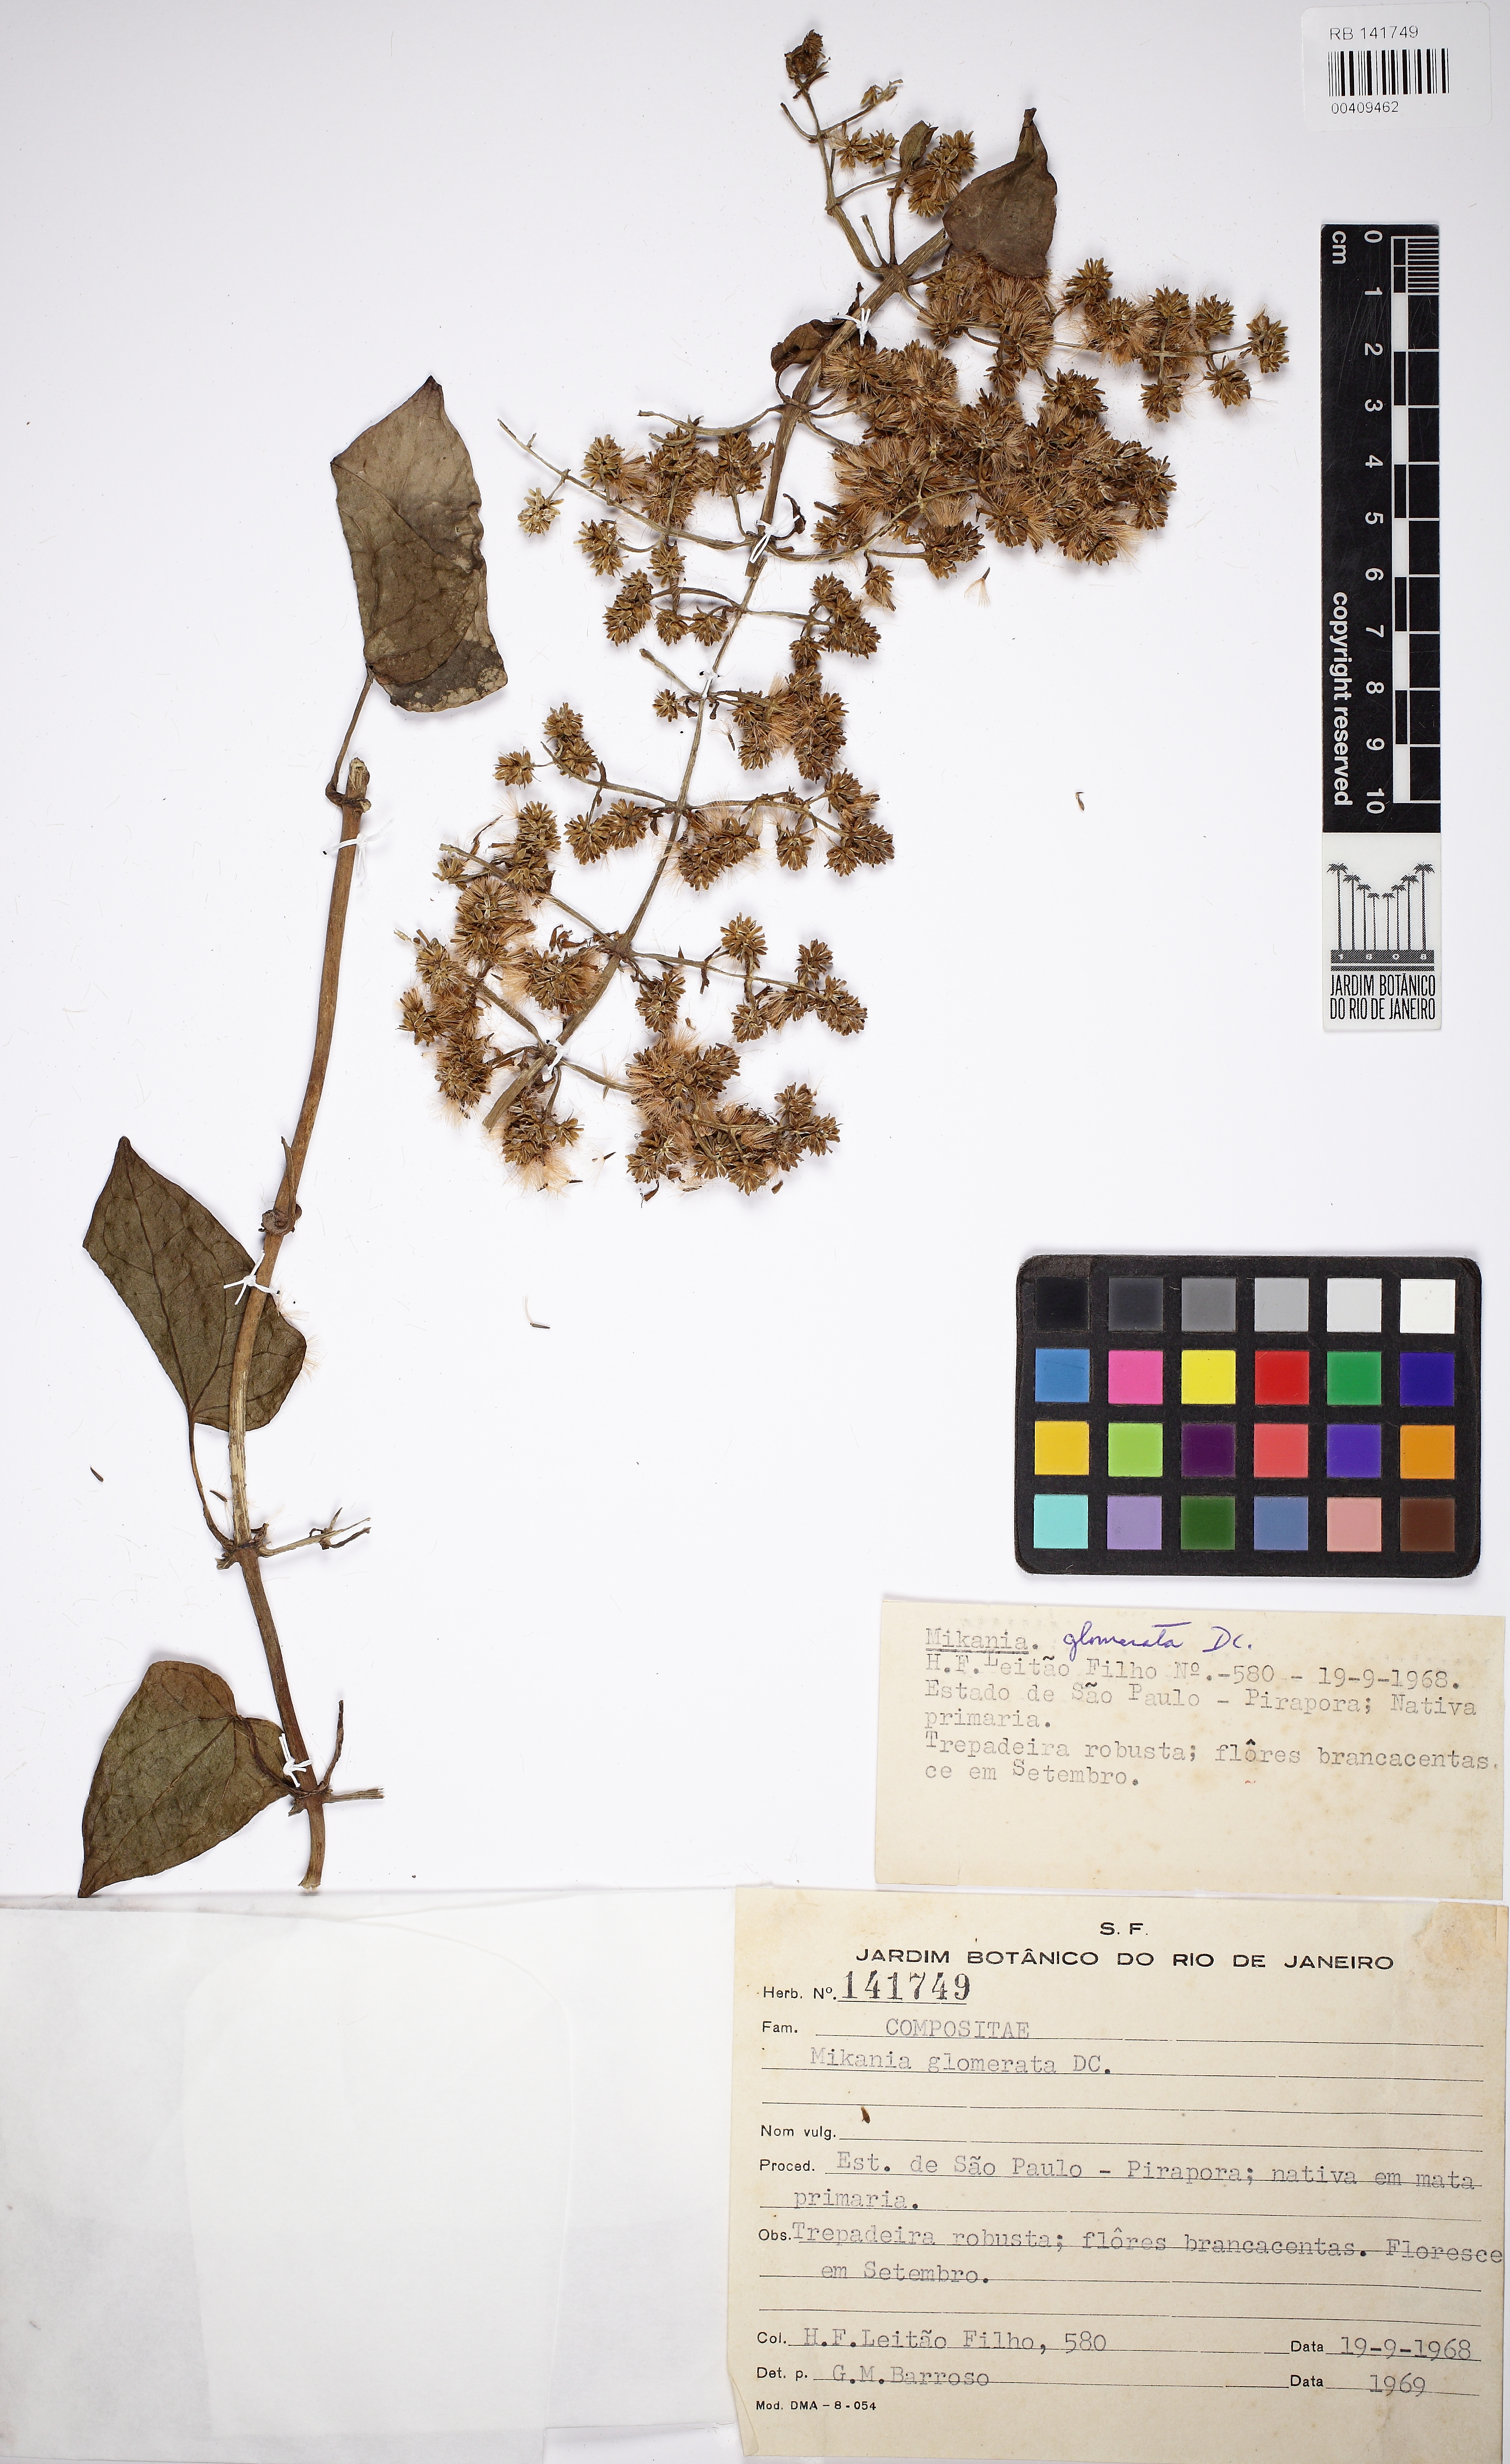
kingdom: Plantae
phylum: Tracheophyta
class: Magnoliopsida
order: Asterales
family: Asteraceae
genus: Mikania
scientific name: Mikania glomerata
